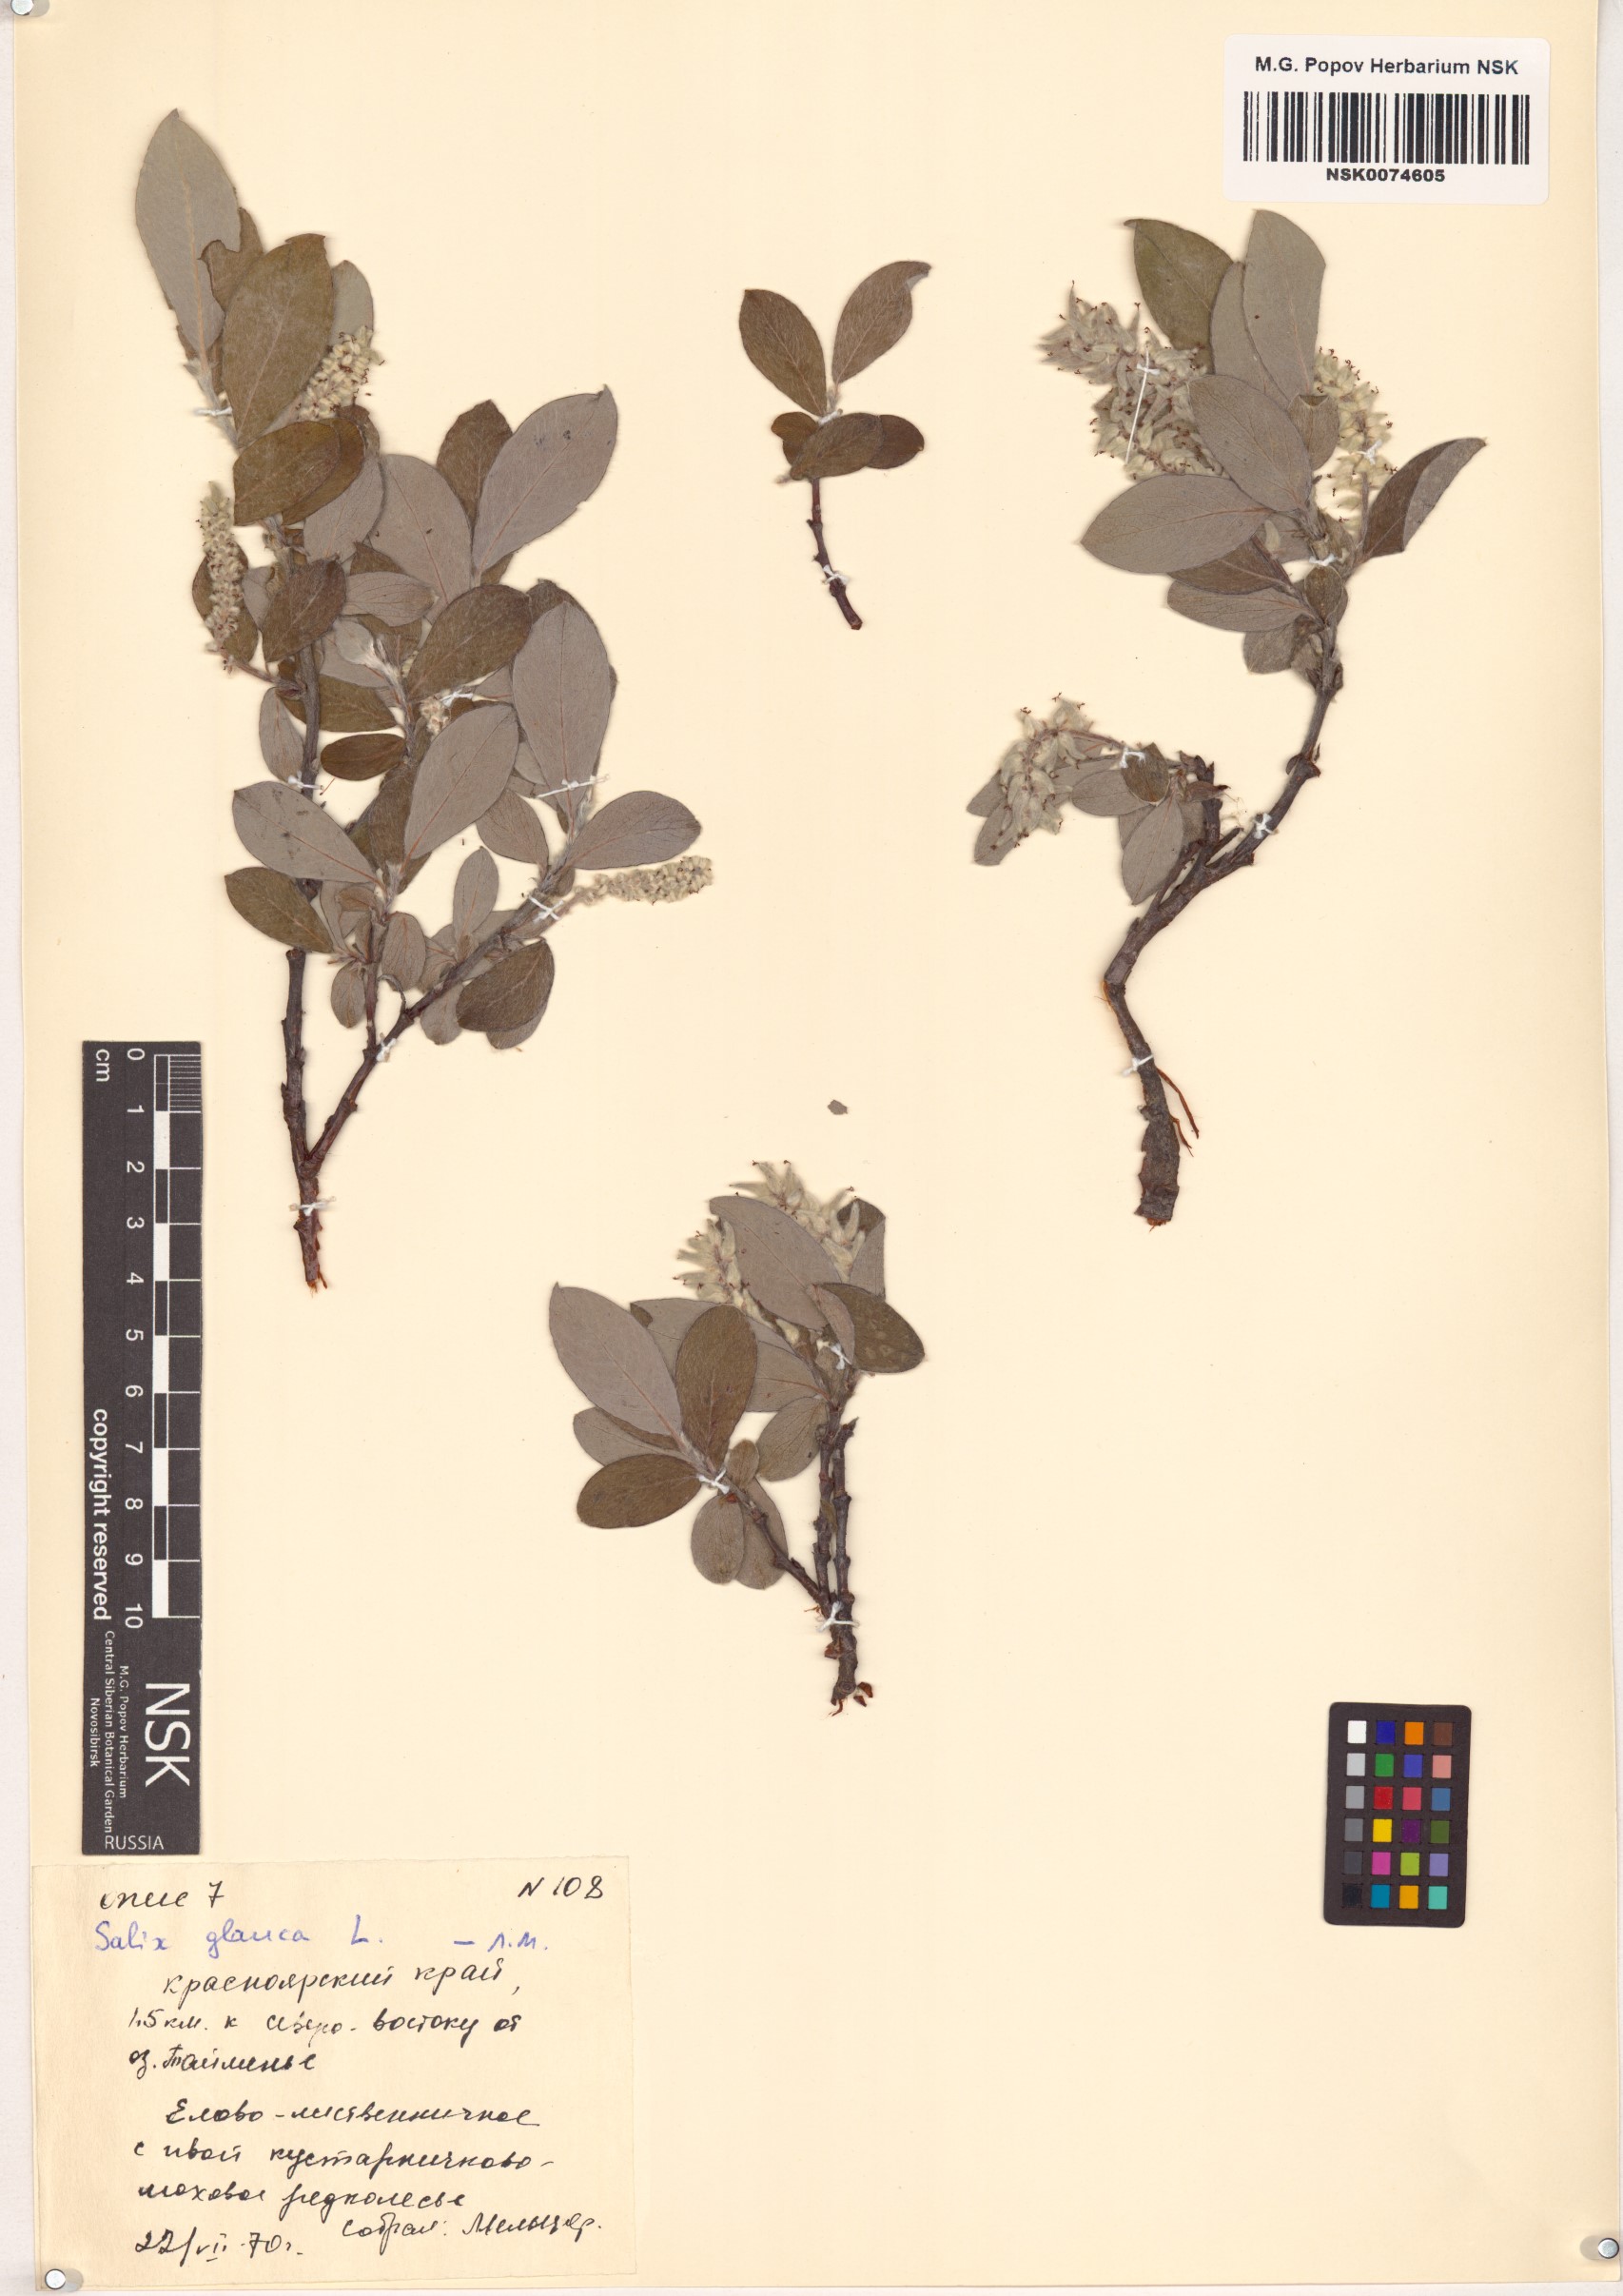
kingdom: Plantae
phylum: Tracheophyta
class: Magnoliopsida
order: Malpighiales
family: Salicaceae
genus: Salix
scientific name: Salix glauca
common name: Glaucous willow
